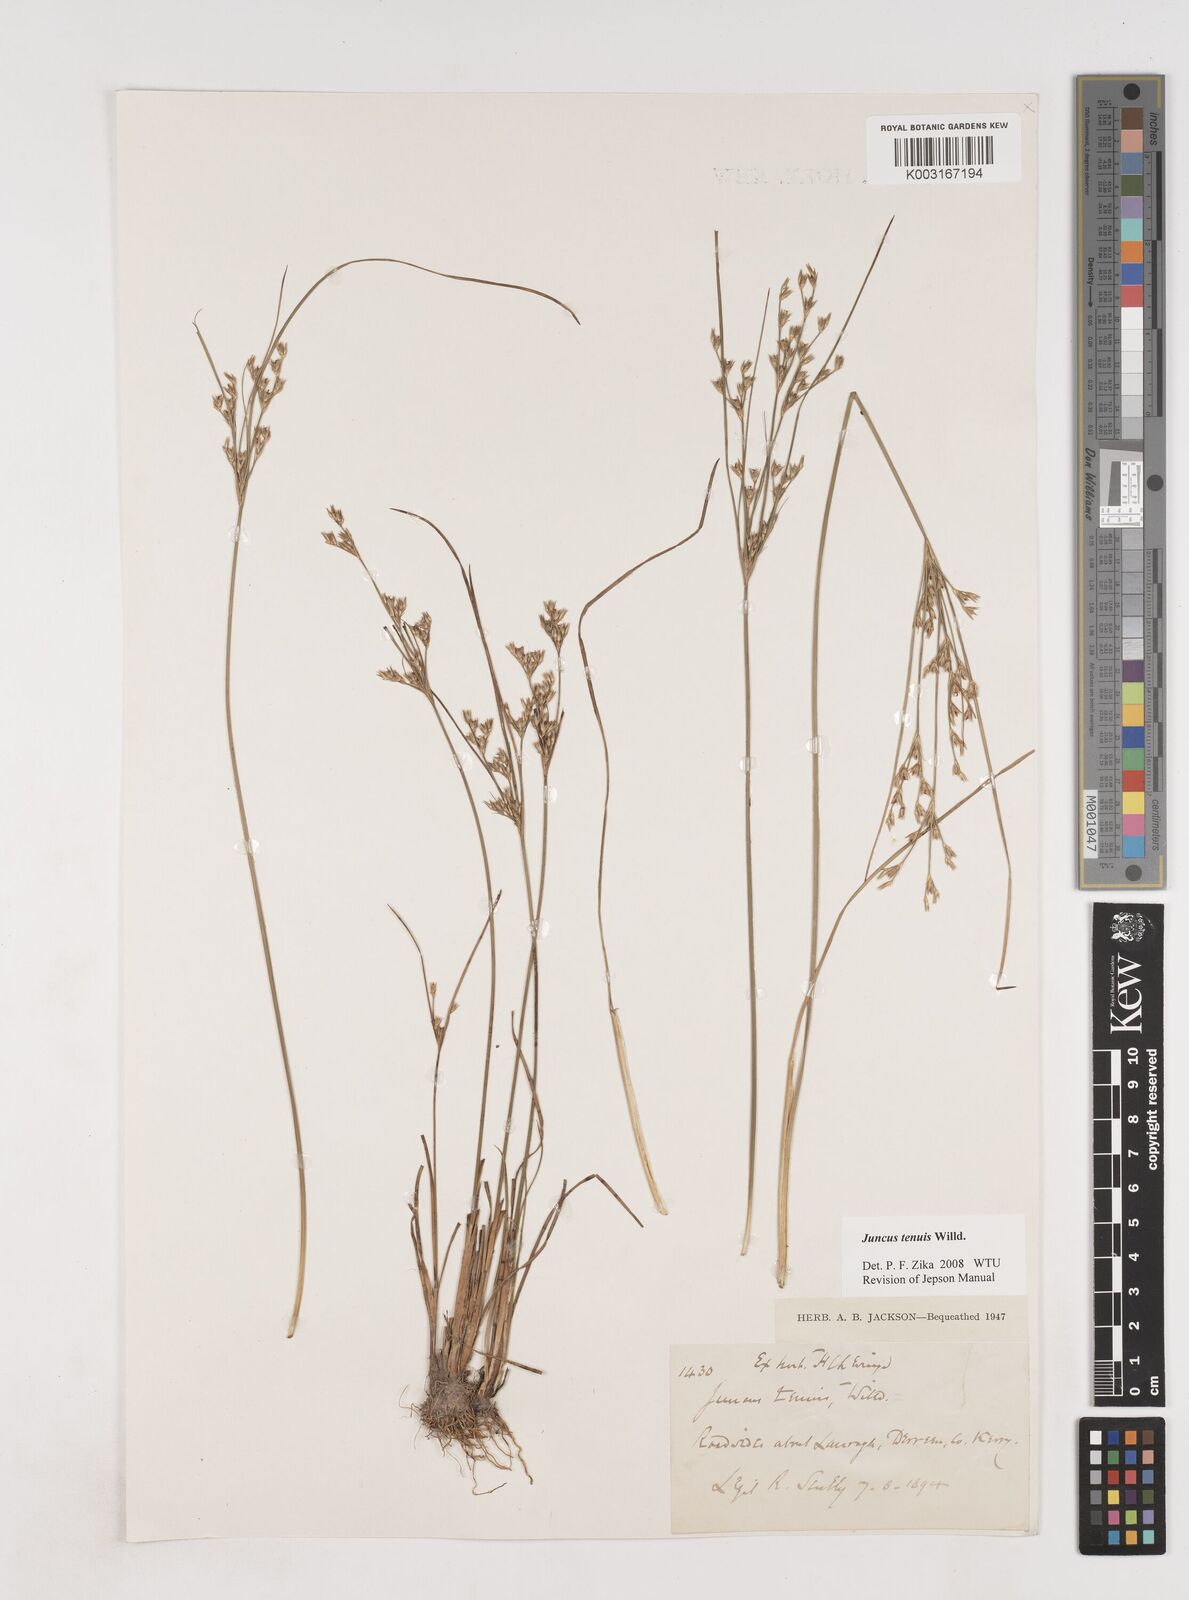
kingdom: Plantae
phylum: Tracheophyta
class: Liliopsida
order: Poales
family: Juncaceae
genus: Juncus
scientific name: Juncus tenuis
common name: Slender rush
